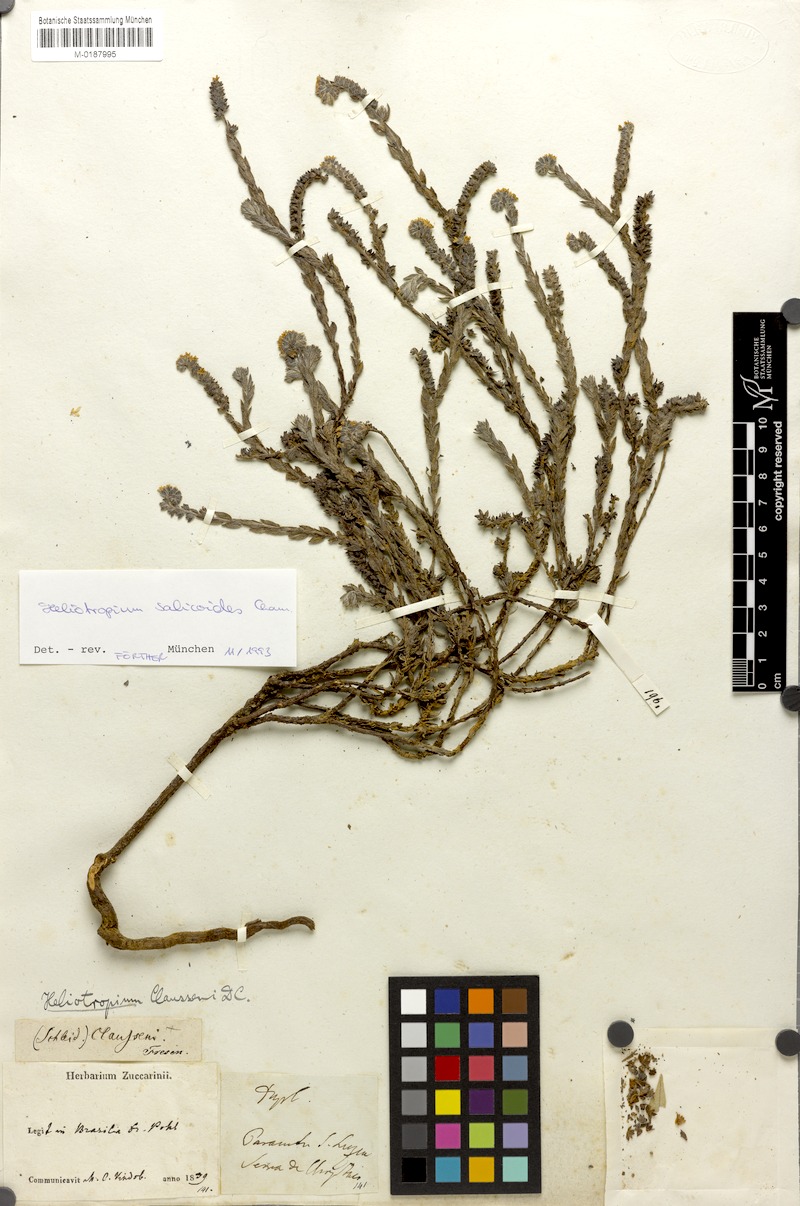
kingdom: Plantae
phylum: Tracheophyta
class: Magnoliopsida
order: Boraginales
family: Heliotropiaceae
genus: Euploca
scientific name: Euploca salicoides
